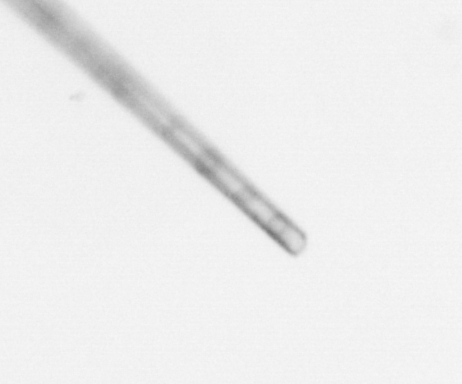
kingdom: Chromista
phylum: Ochrophyta
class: Bacillariophyceae
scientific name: Bacillariophyceae
